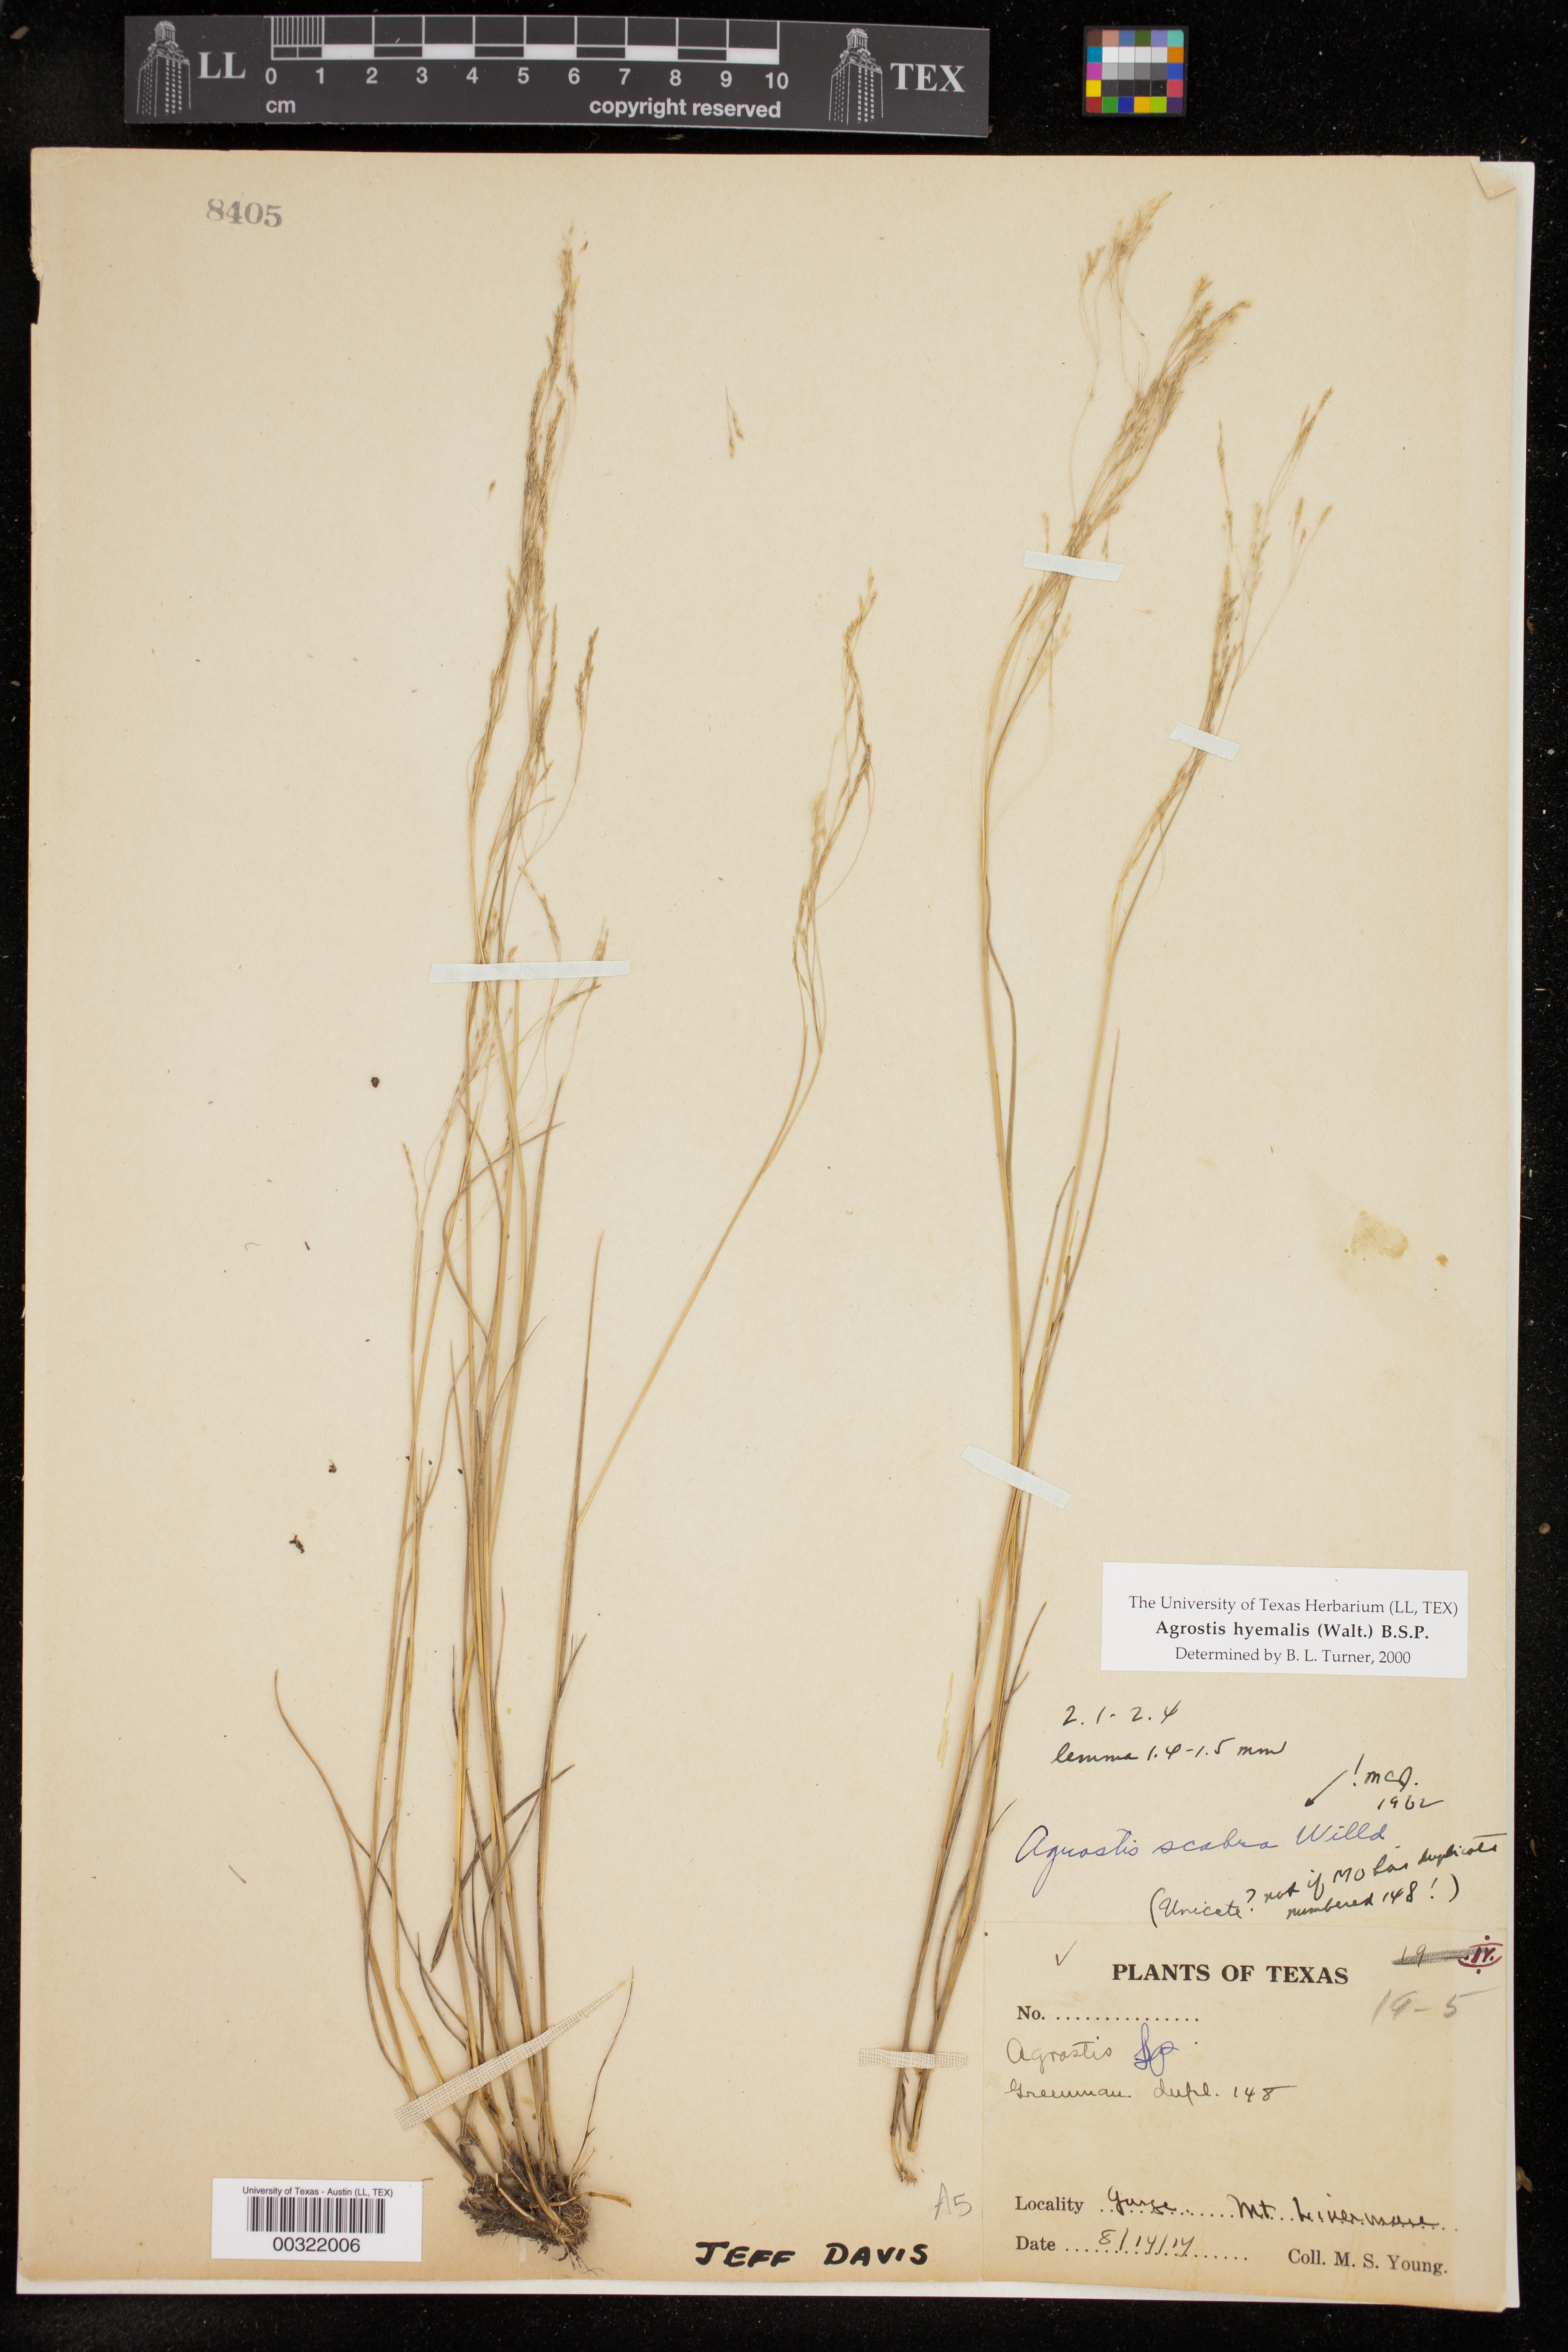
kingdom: Plantae
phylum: Tracheophyta
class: Liliopsida
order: Poales
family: Poaceae
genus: Agrostis
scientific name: Agrostis hyemalis
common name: Small bent
